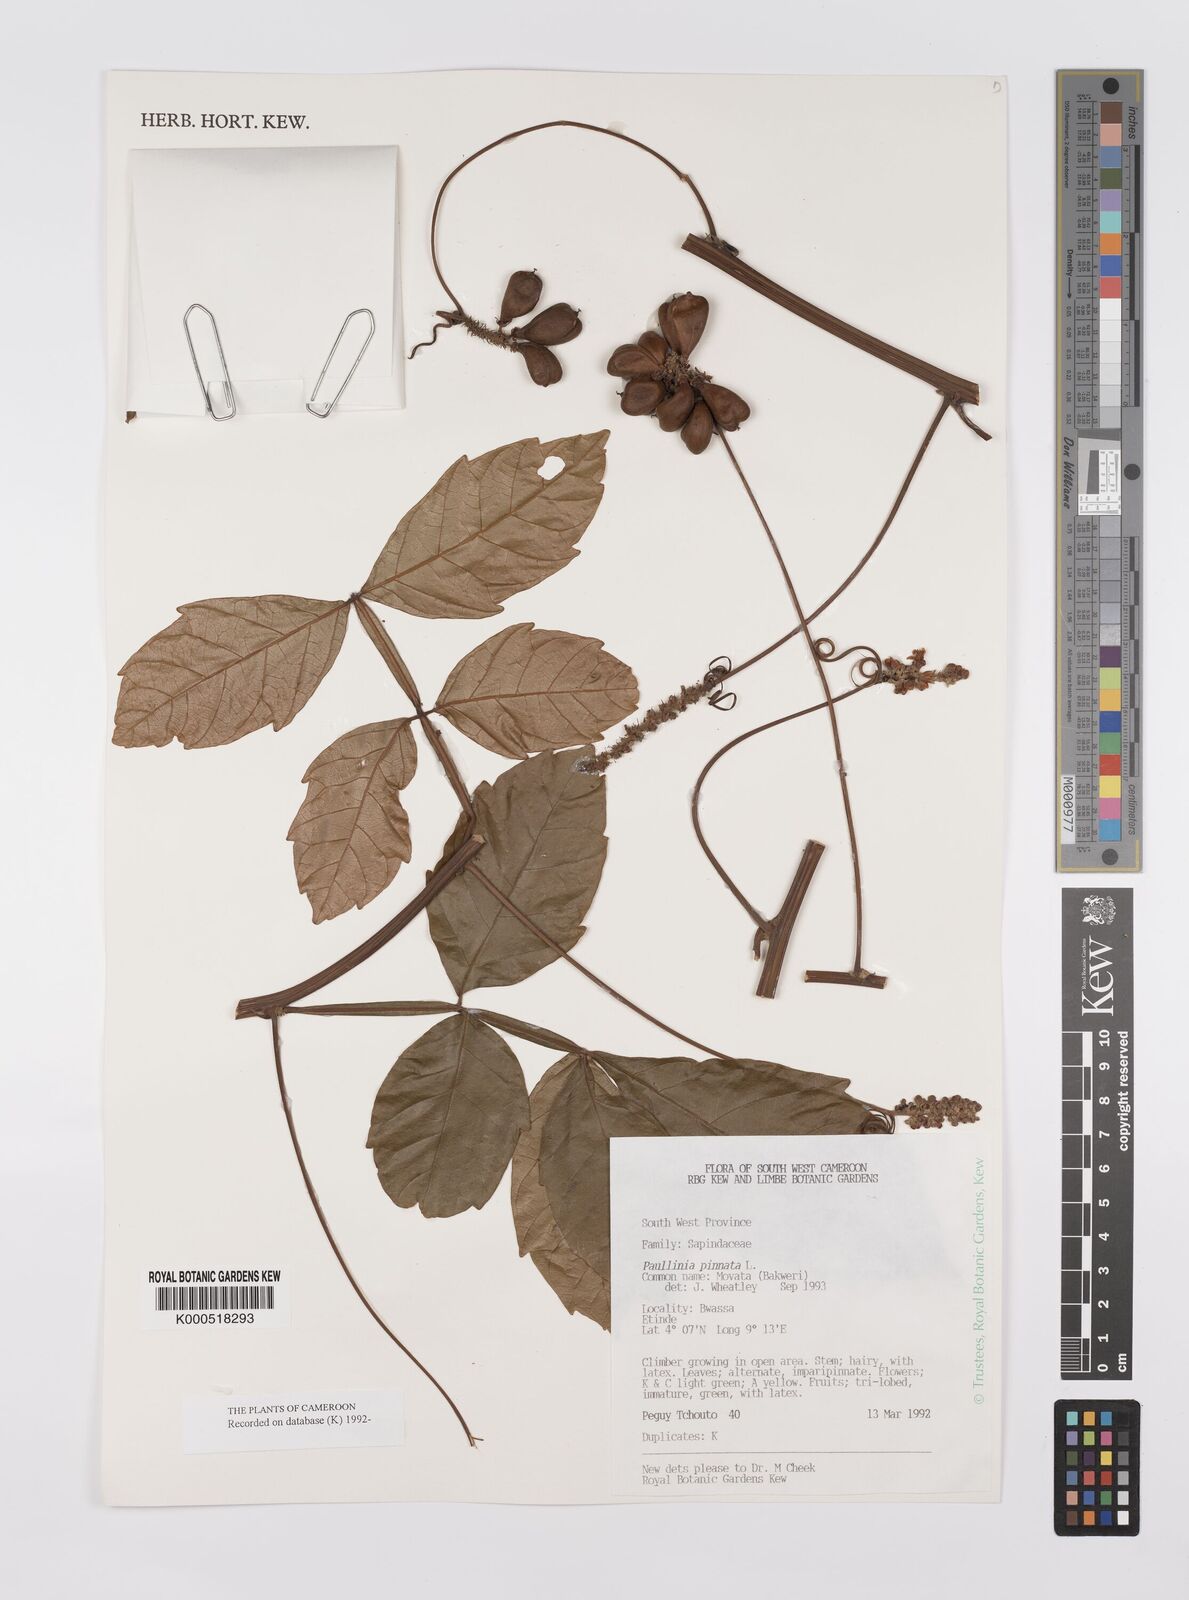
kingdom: Plantae
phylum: Tracheophyta
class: Magnoliopsida
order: Sapindales
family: Sapindaceae
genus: Paullinia
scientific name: Paullinia pinnata
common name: Barbasco
